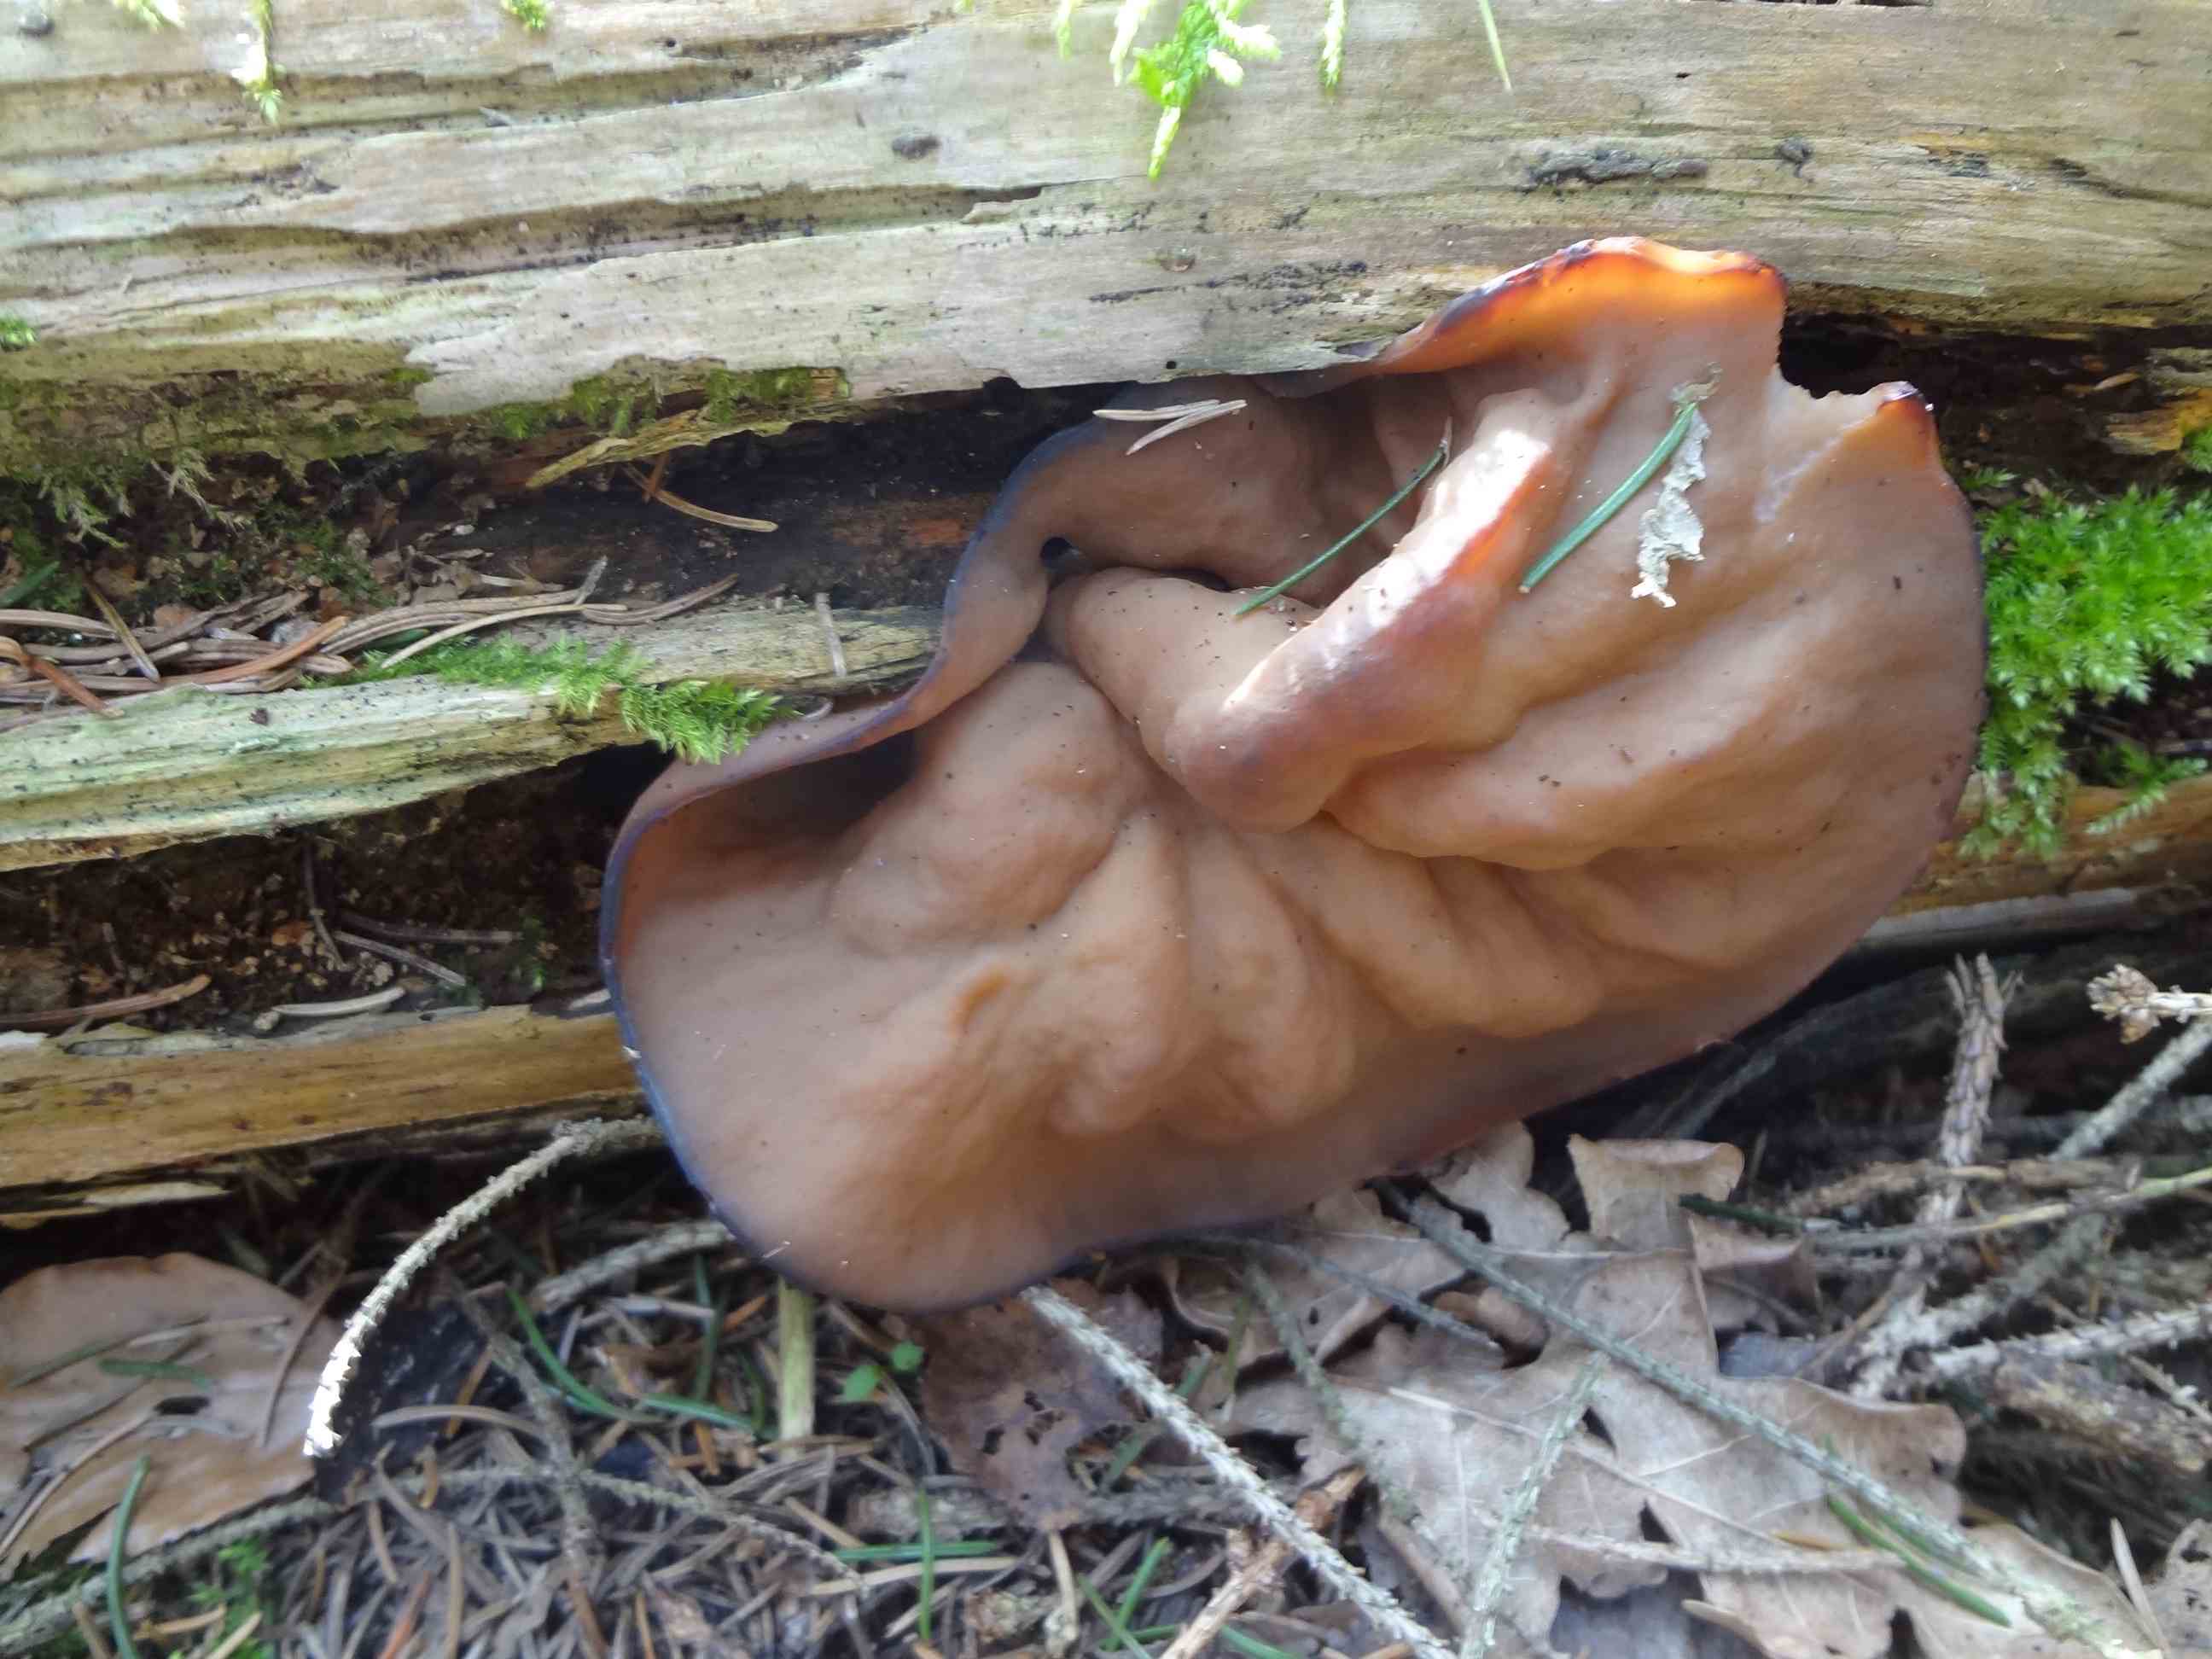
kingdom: Fungi
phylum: Ascomycota
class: Pezizomycetes
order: Pezizales
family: Discinaceae
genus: Discina
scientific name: Discina ancilis
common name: udbredt stenmorkel
